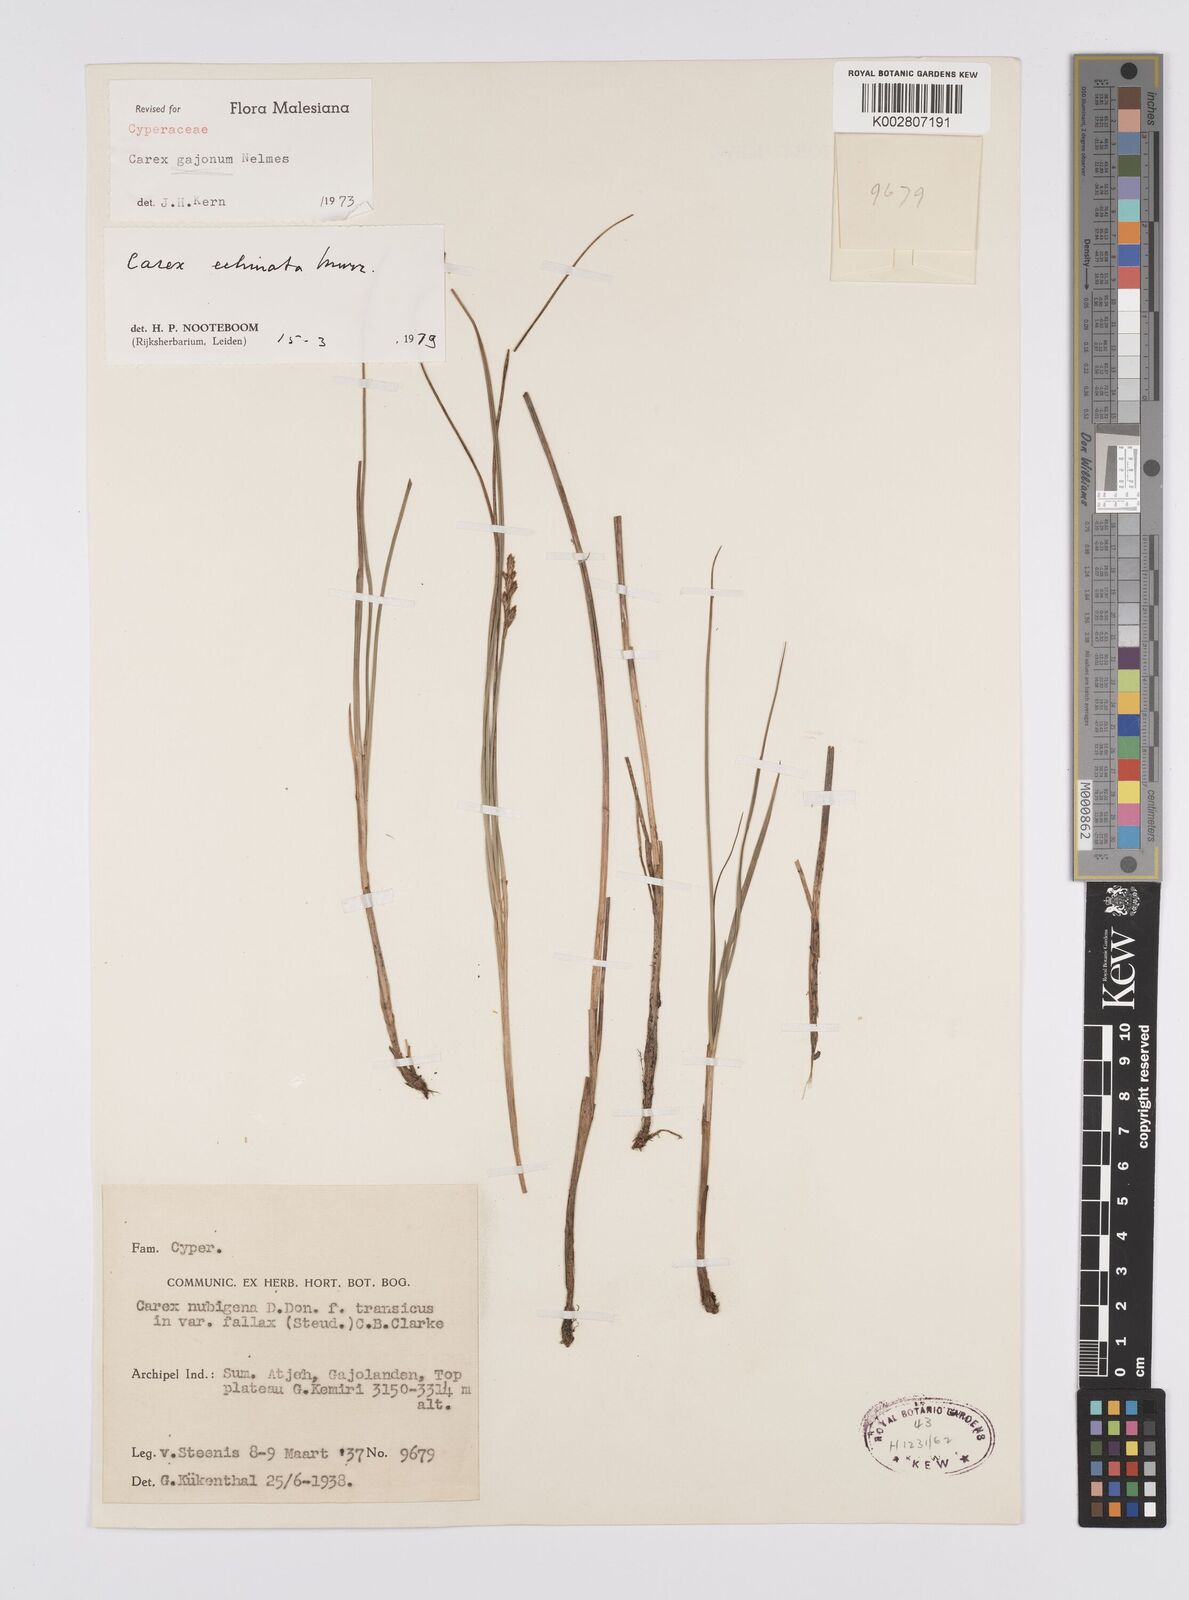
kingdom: Plantae
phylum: Tracheophyta
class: Liliopsida
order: Poales
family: Cyperaceae
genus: Carex
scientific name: Carex echinata
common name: Star sedge
